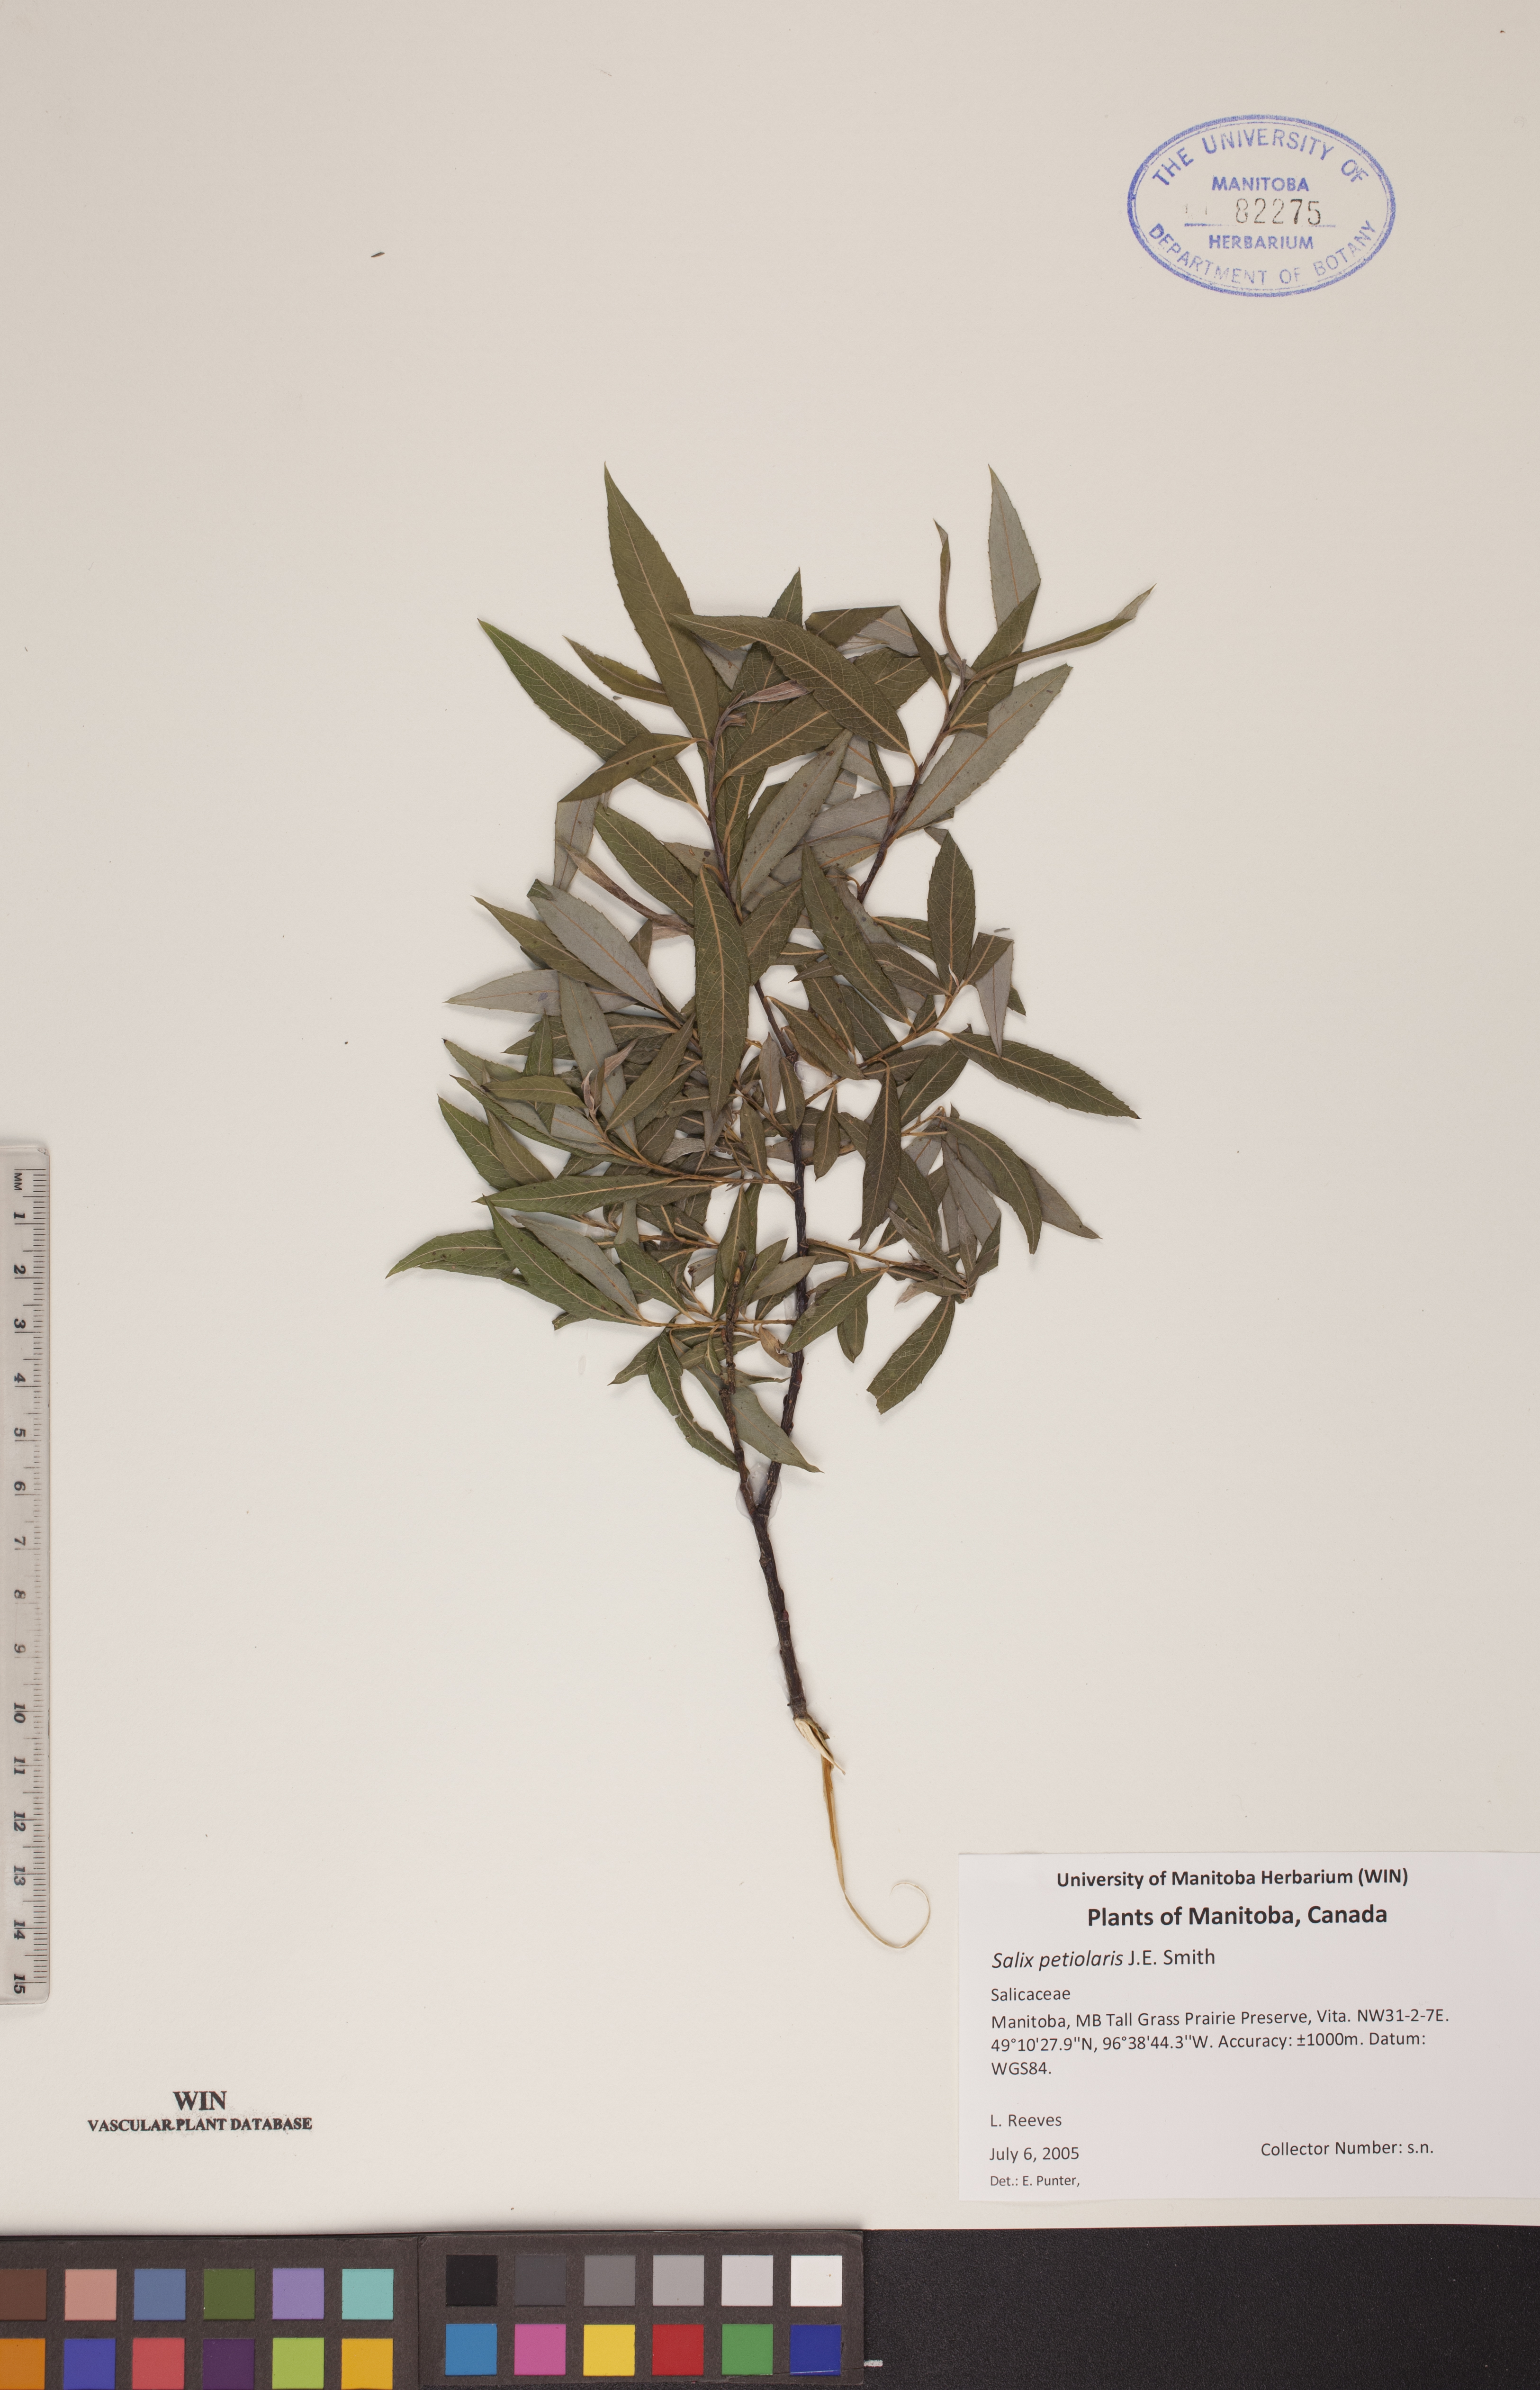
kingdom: Plantae
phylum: Tracheophyta
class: Magnoliopsida
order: Malpighiales
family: Salicaceae
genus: Salix
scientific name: Salix petiolaris
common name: Slender willow
